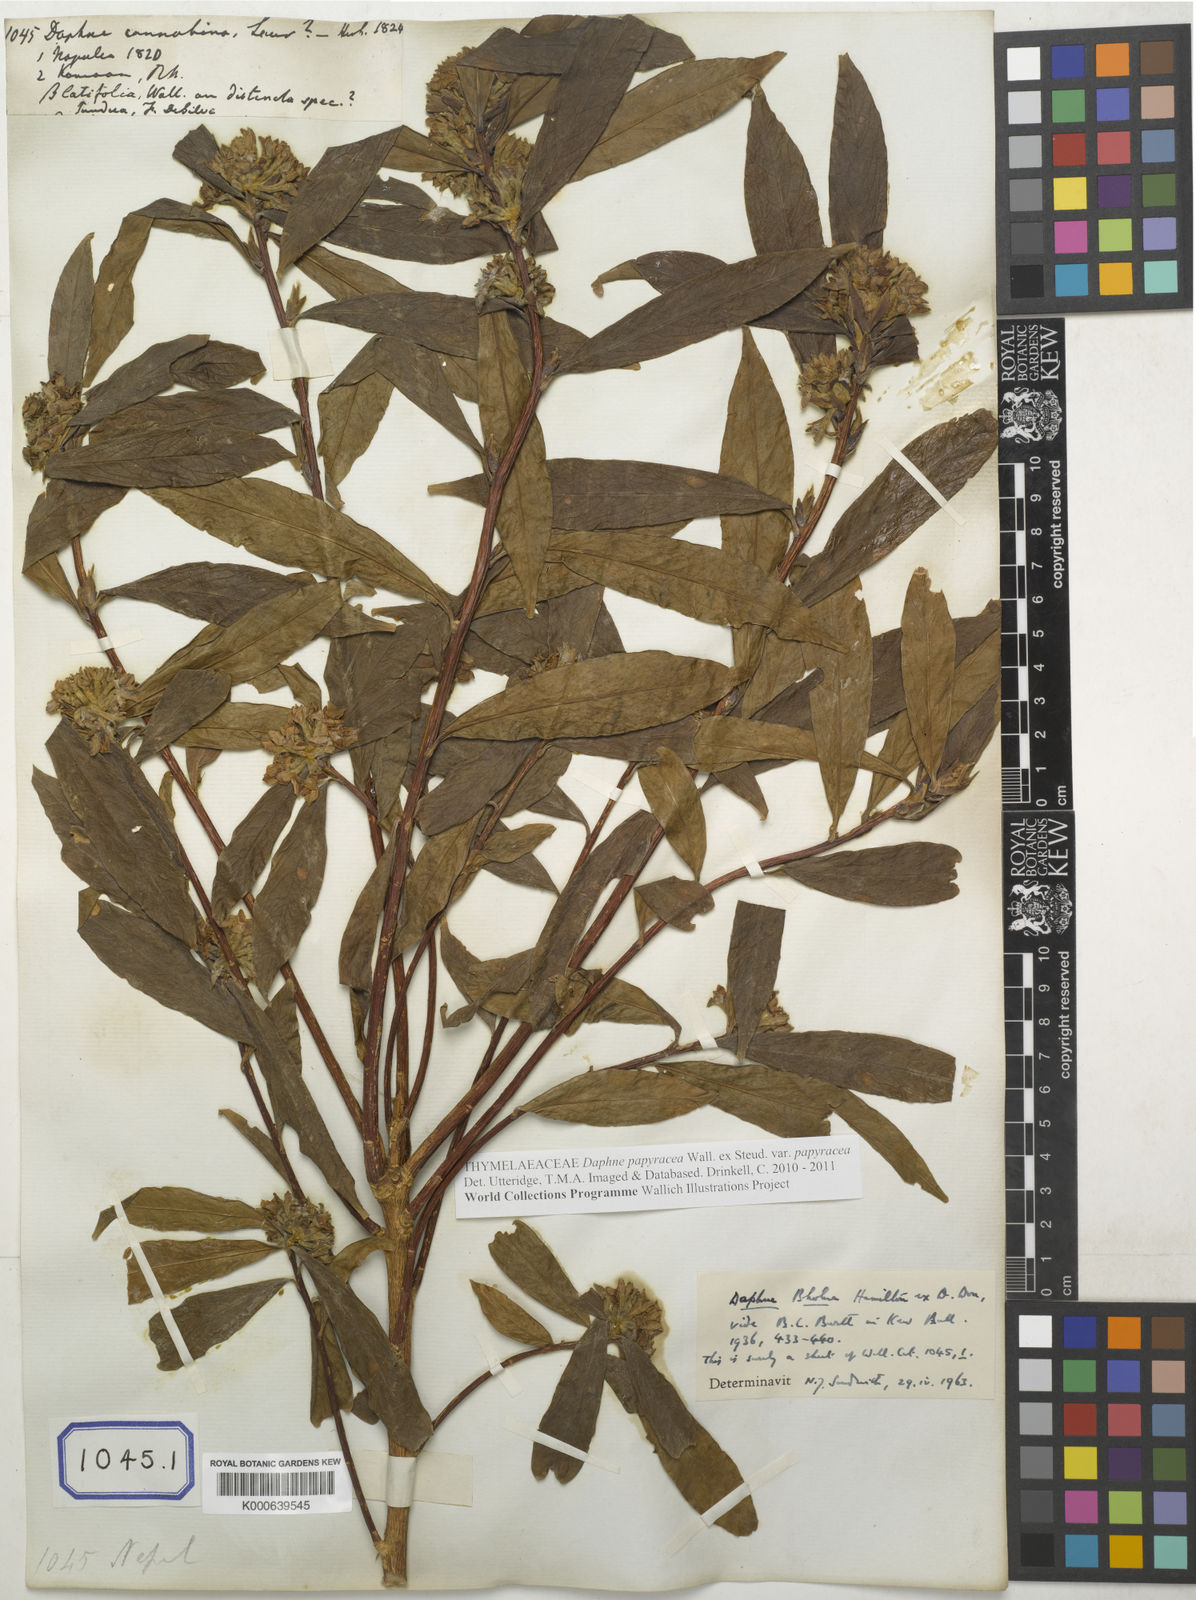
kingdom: Plantae
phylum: Tracheophyta
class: Magnoliopsida
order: Malvales
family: Thymelaeaceae
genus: Wikstroemia
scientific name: Wikstroemia indica
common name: Tiebush
